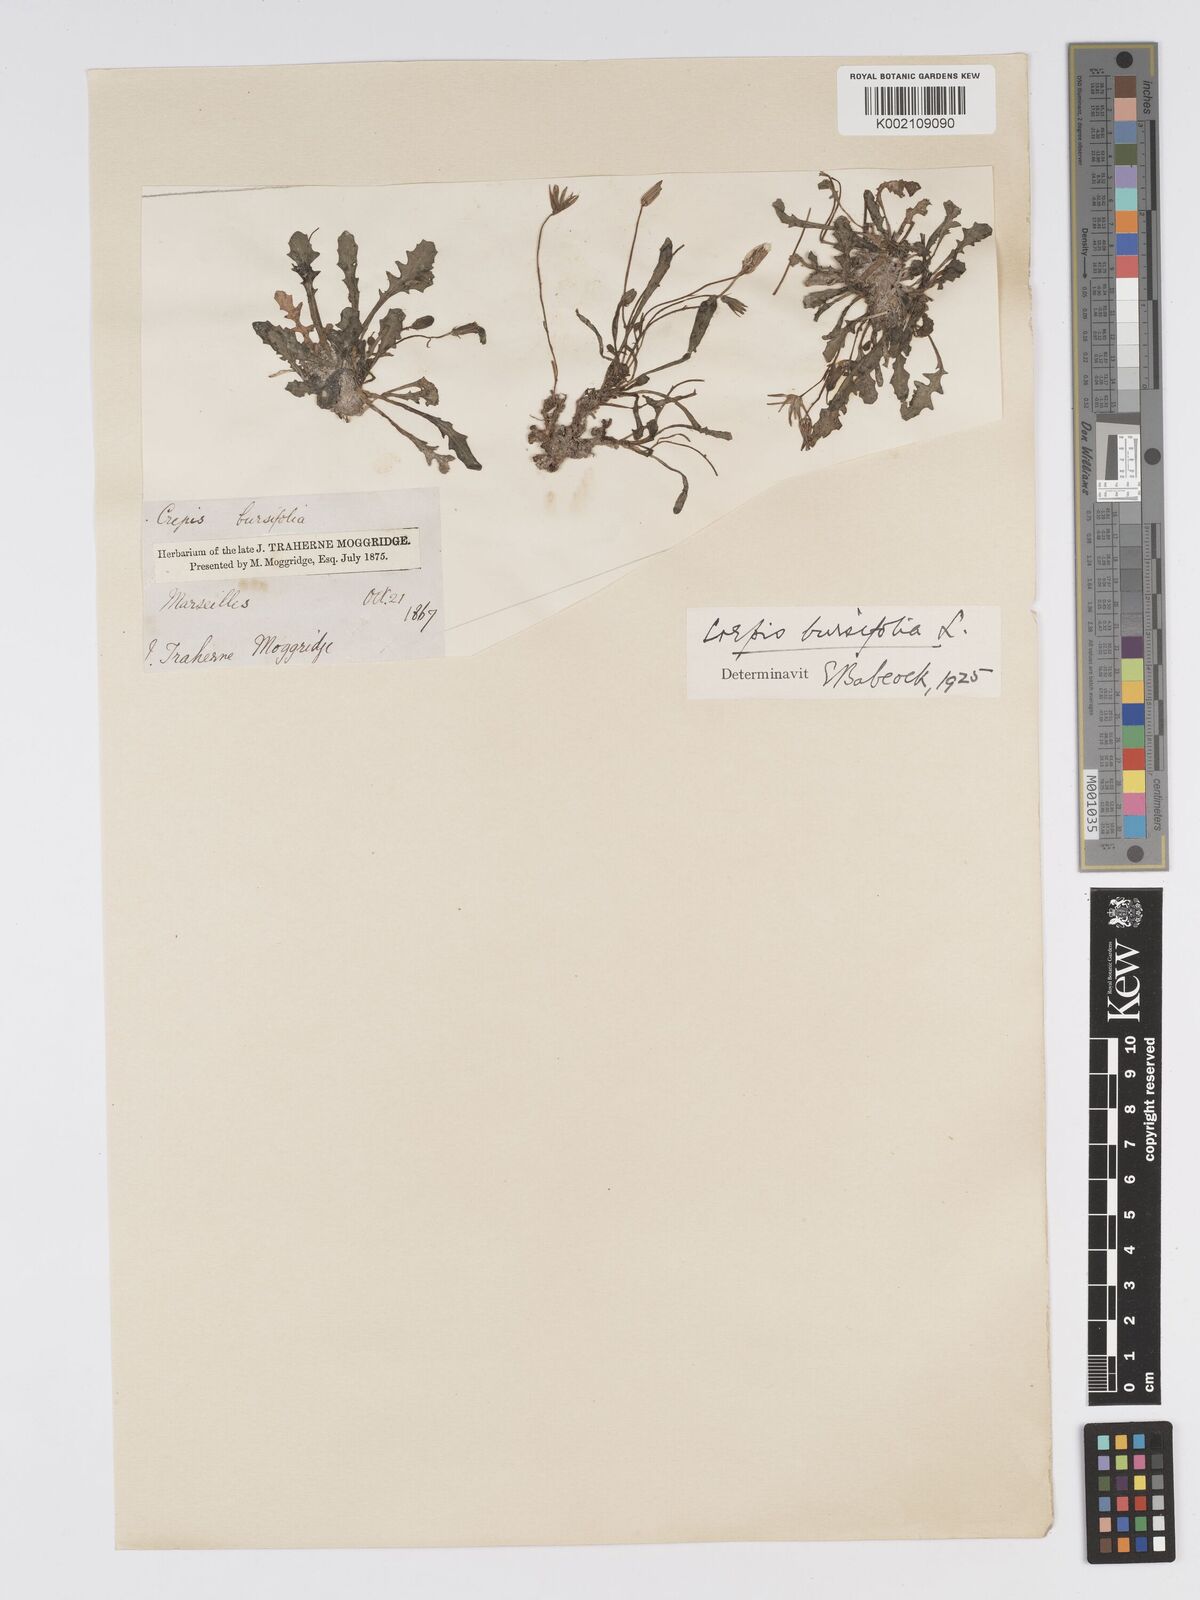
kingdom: Plantae
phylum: Tracheophyta
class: Magnoliopsida
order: Asterales
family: Asteraceae
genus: Crepis
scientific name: Crepis bursifolia
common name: Italian hawksbeard
